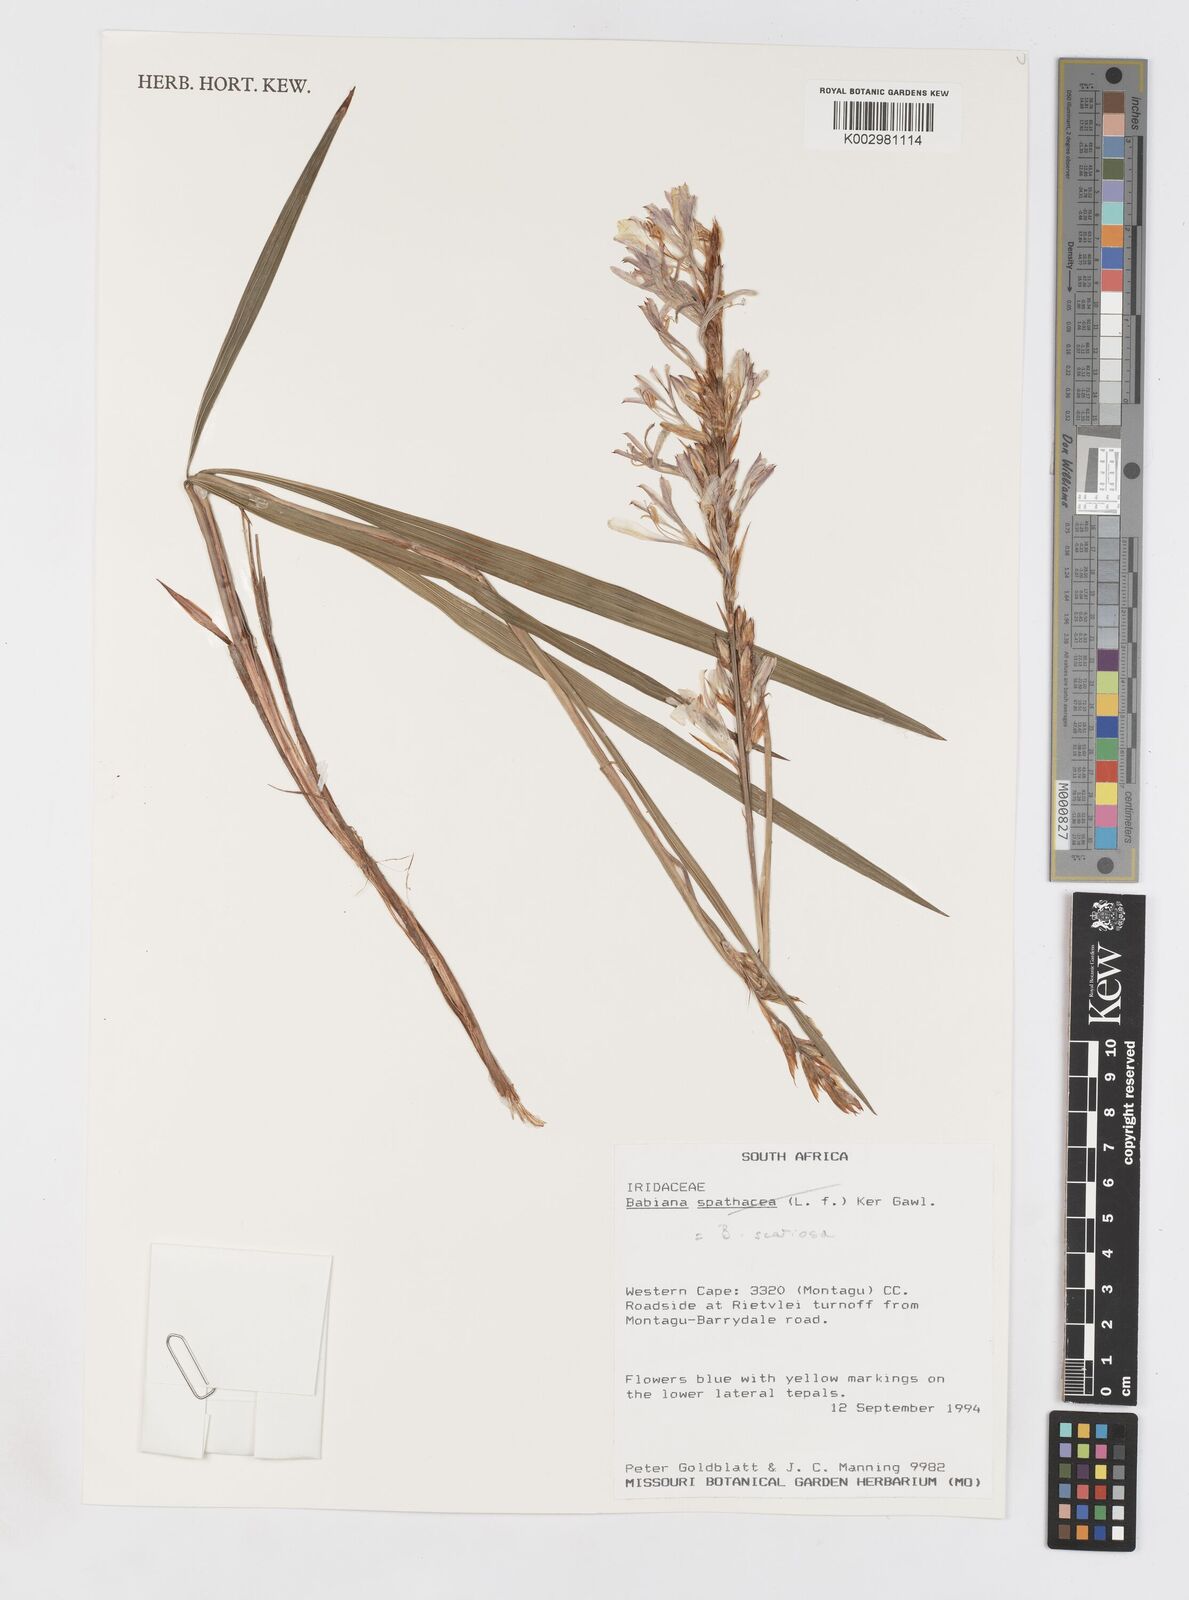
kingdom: Plantae
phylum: Tracheophyta
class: Liliopsida
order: Asparagales
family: Iridaceae
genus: Babiana
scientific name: Babiana scariosa
